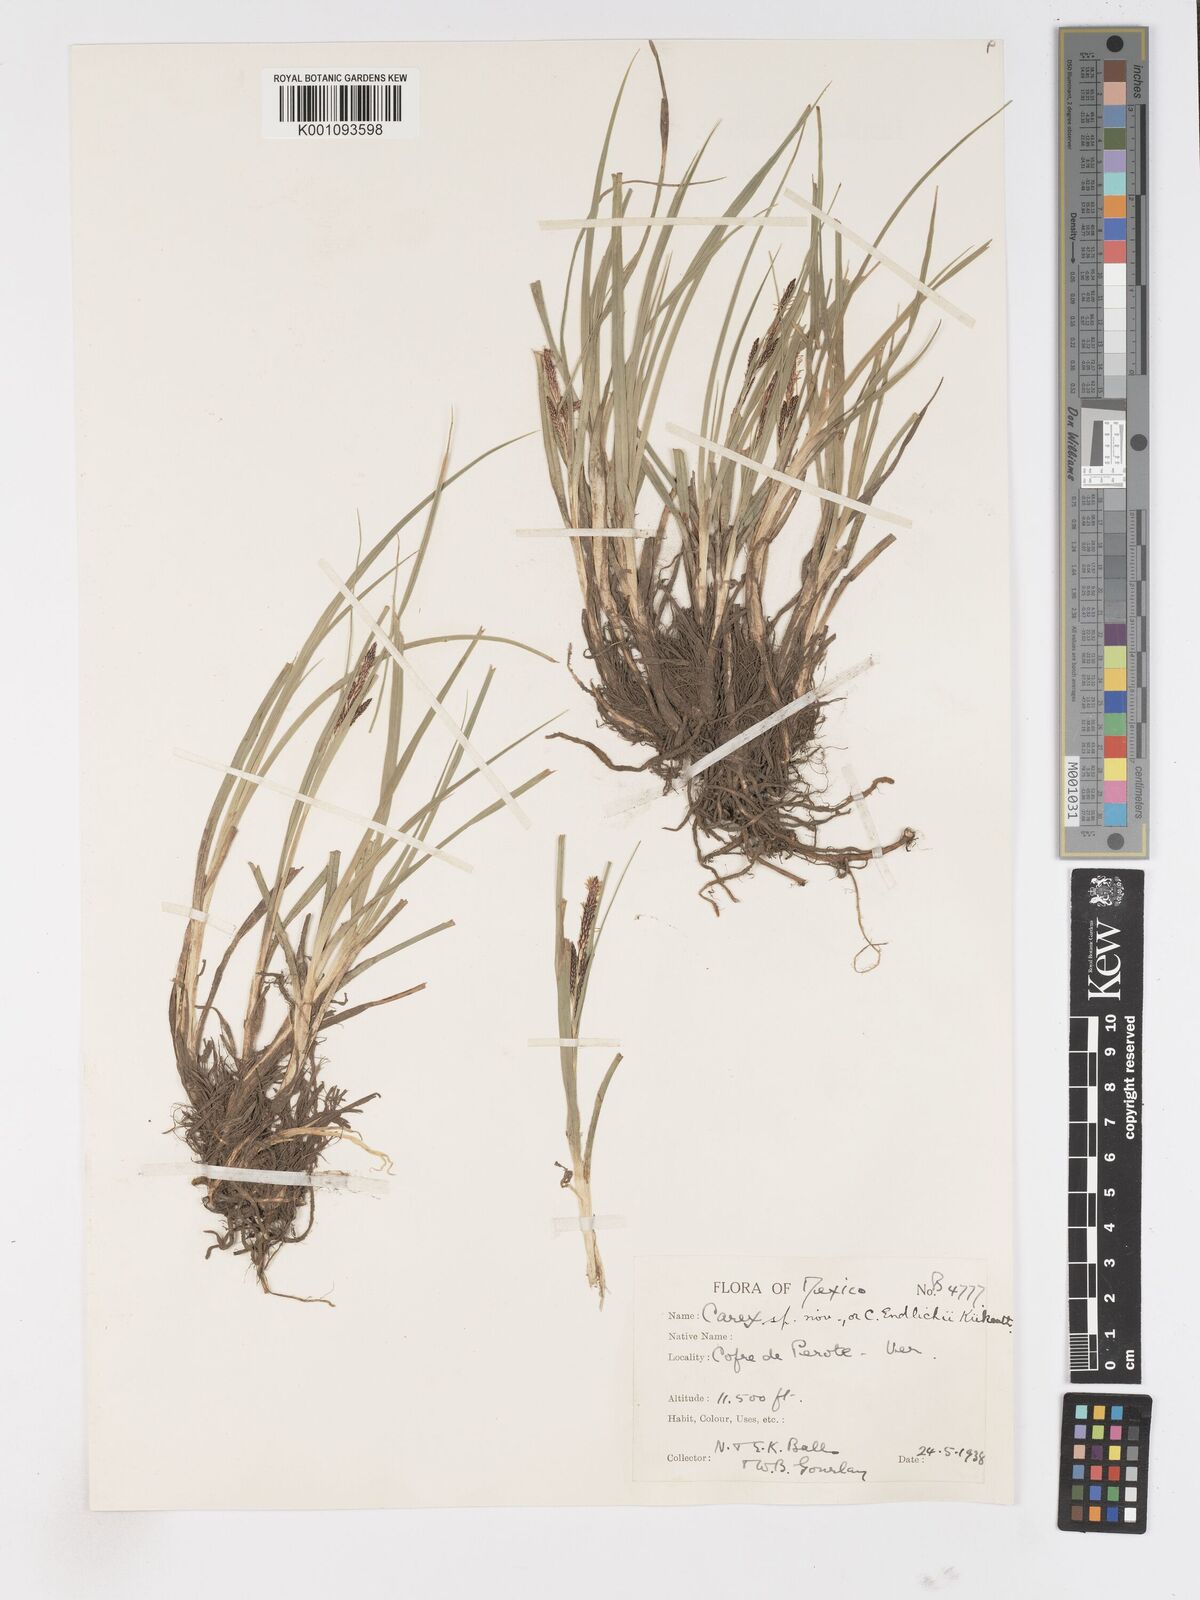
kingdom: Plantae
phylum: Tracheophyta
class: Liliopsida
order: Poales
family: Cyperaceae
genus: Carex
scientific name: Carex endlichii
